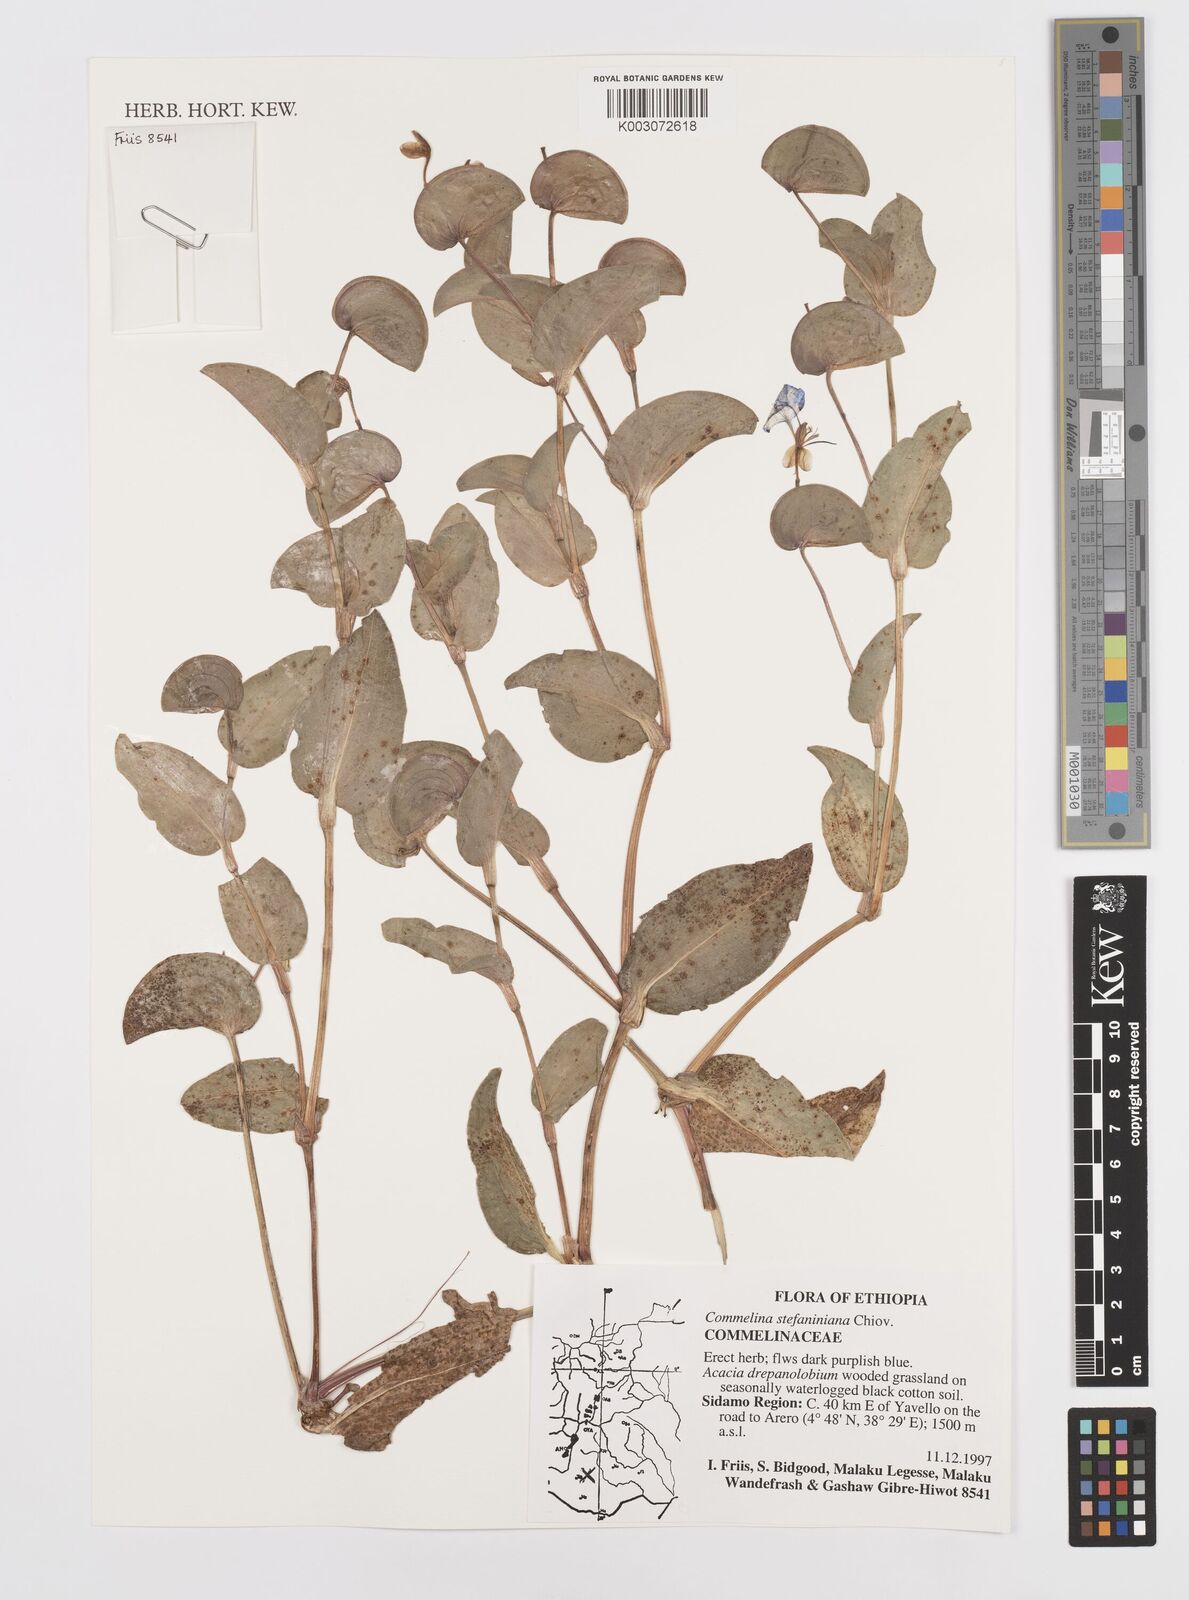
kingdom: Plantae
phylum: Tracheophyta
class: Liliopsida
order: Commelinales
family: Commelinaceae
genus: Commelina
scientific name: Commelina stefaniniana
